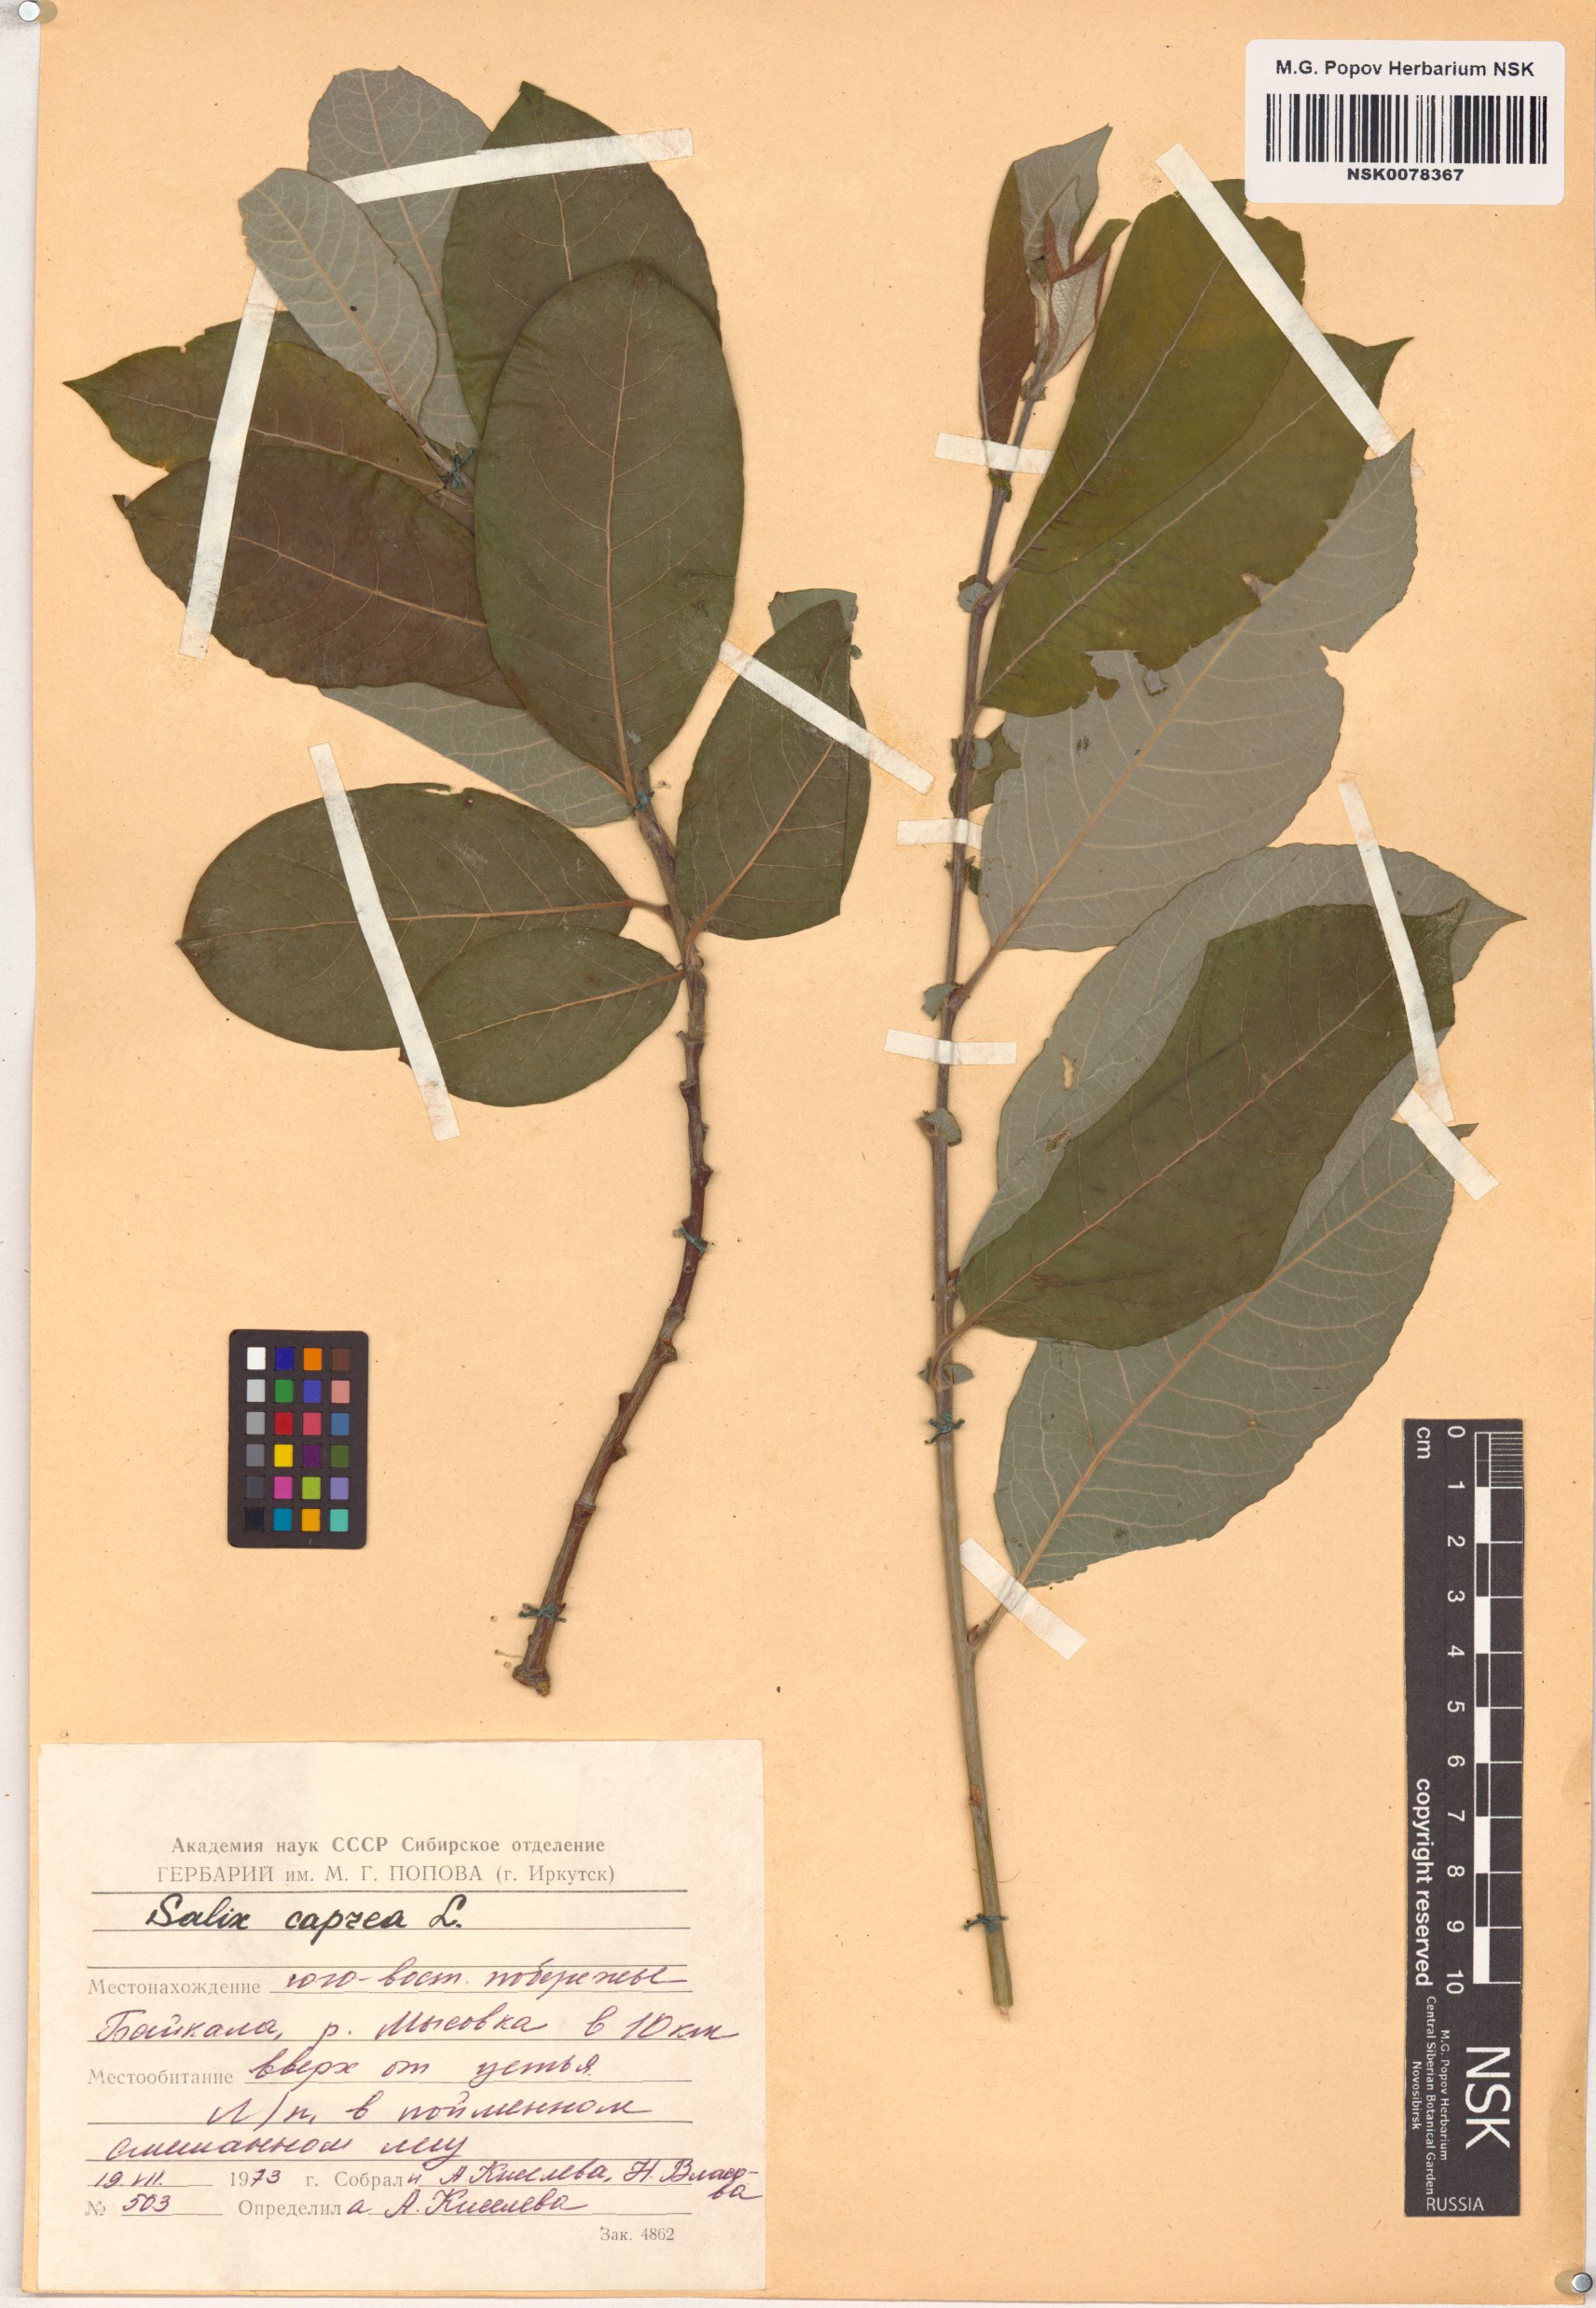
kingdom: Plantae
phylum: Tracheophyta
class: Magnoliopsida
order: Malpighiales
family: Salicaceae
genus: Salix
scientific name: Salix caprea
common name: Goat willow
